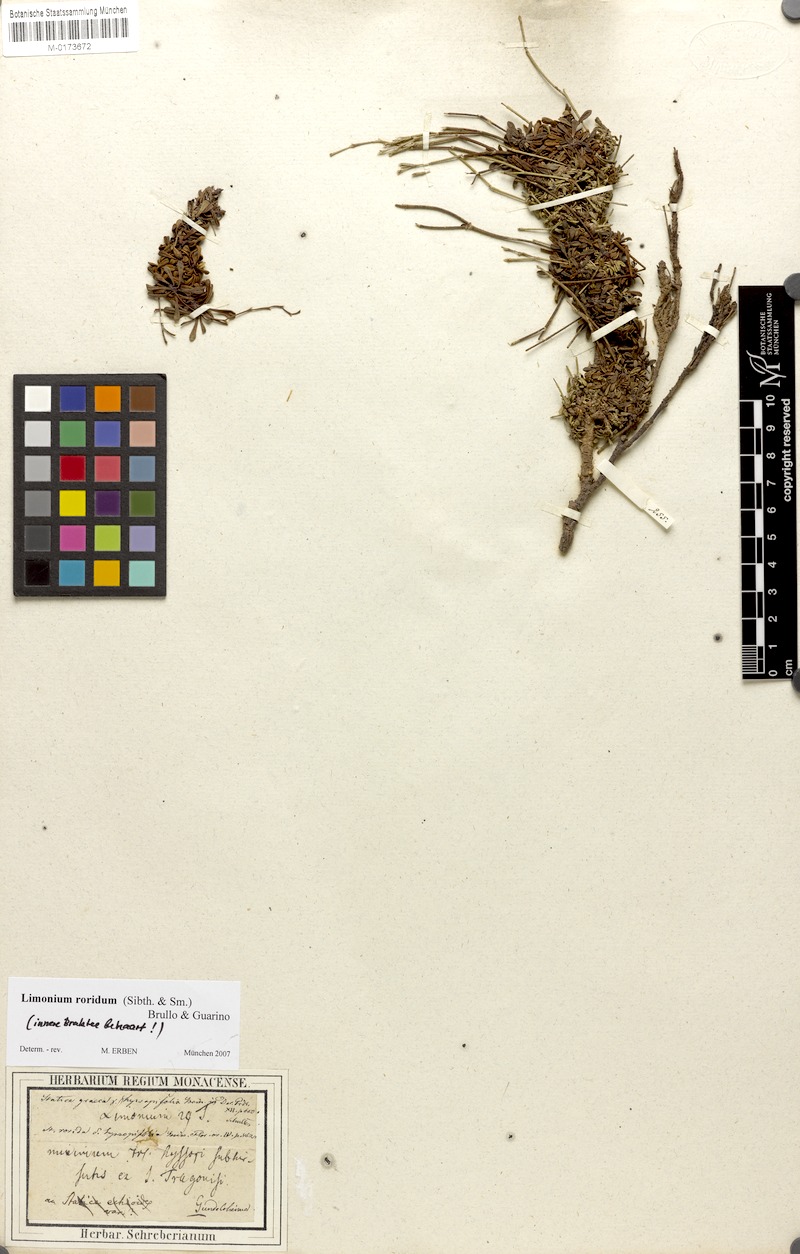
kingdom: Plantae
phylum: Tracheophyta
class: Magnoliopsida
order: Caryophyllales
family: Plumbaginaceae
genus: Limonium
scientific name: Limonium roridum
